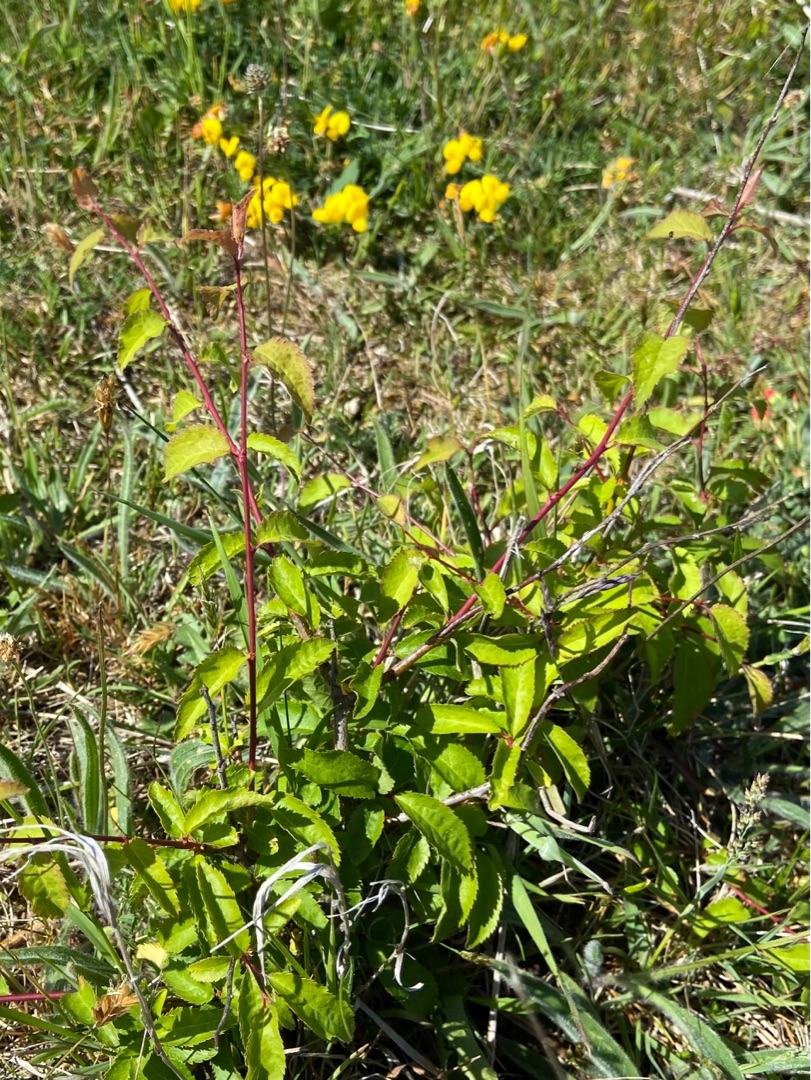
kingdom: Plantae
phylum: Tracheophyta
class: Magnoliopsida
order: Rosales
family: Rosaceae
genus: Prunus
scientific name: Prunus cerasifera
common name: Mirabel
